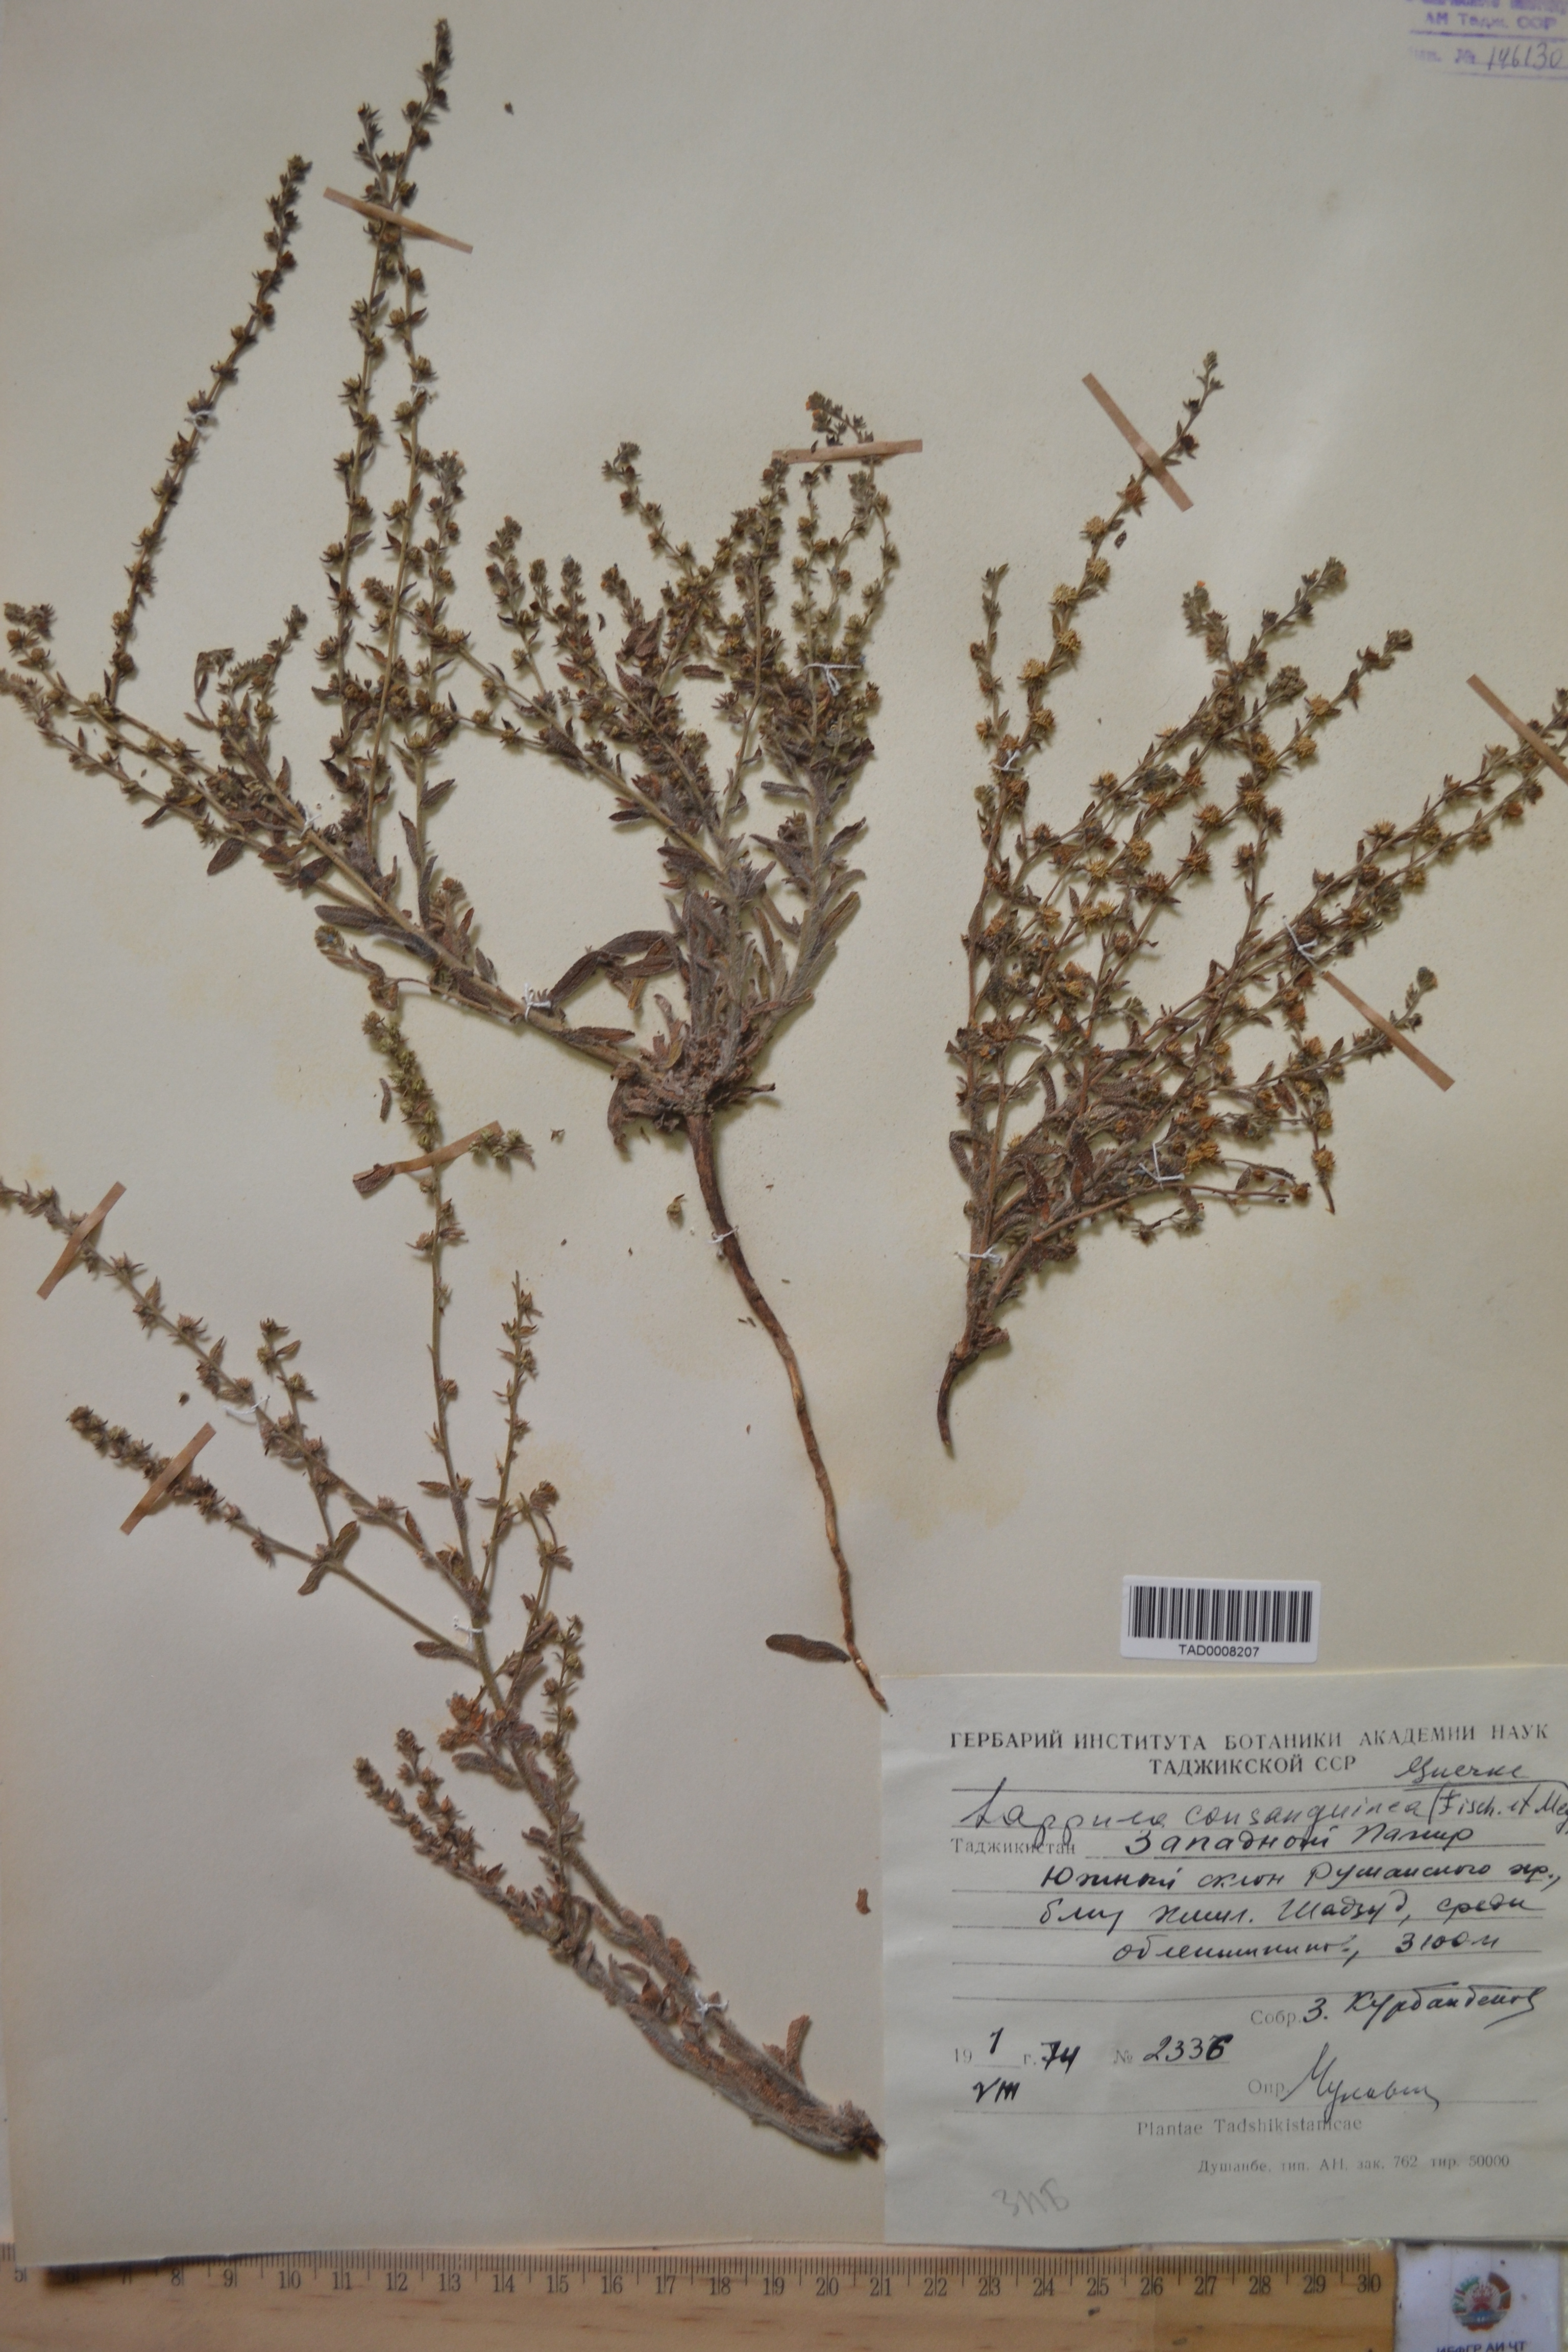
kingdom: Plantae
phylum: Tracheophyta
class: Magnoliopsida
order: Boraginales
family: Boraginaceae
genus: Lappula
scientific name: Lappula squarrosa
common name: European stickseed
